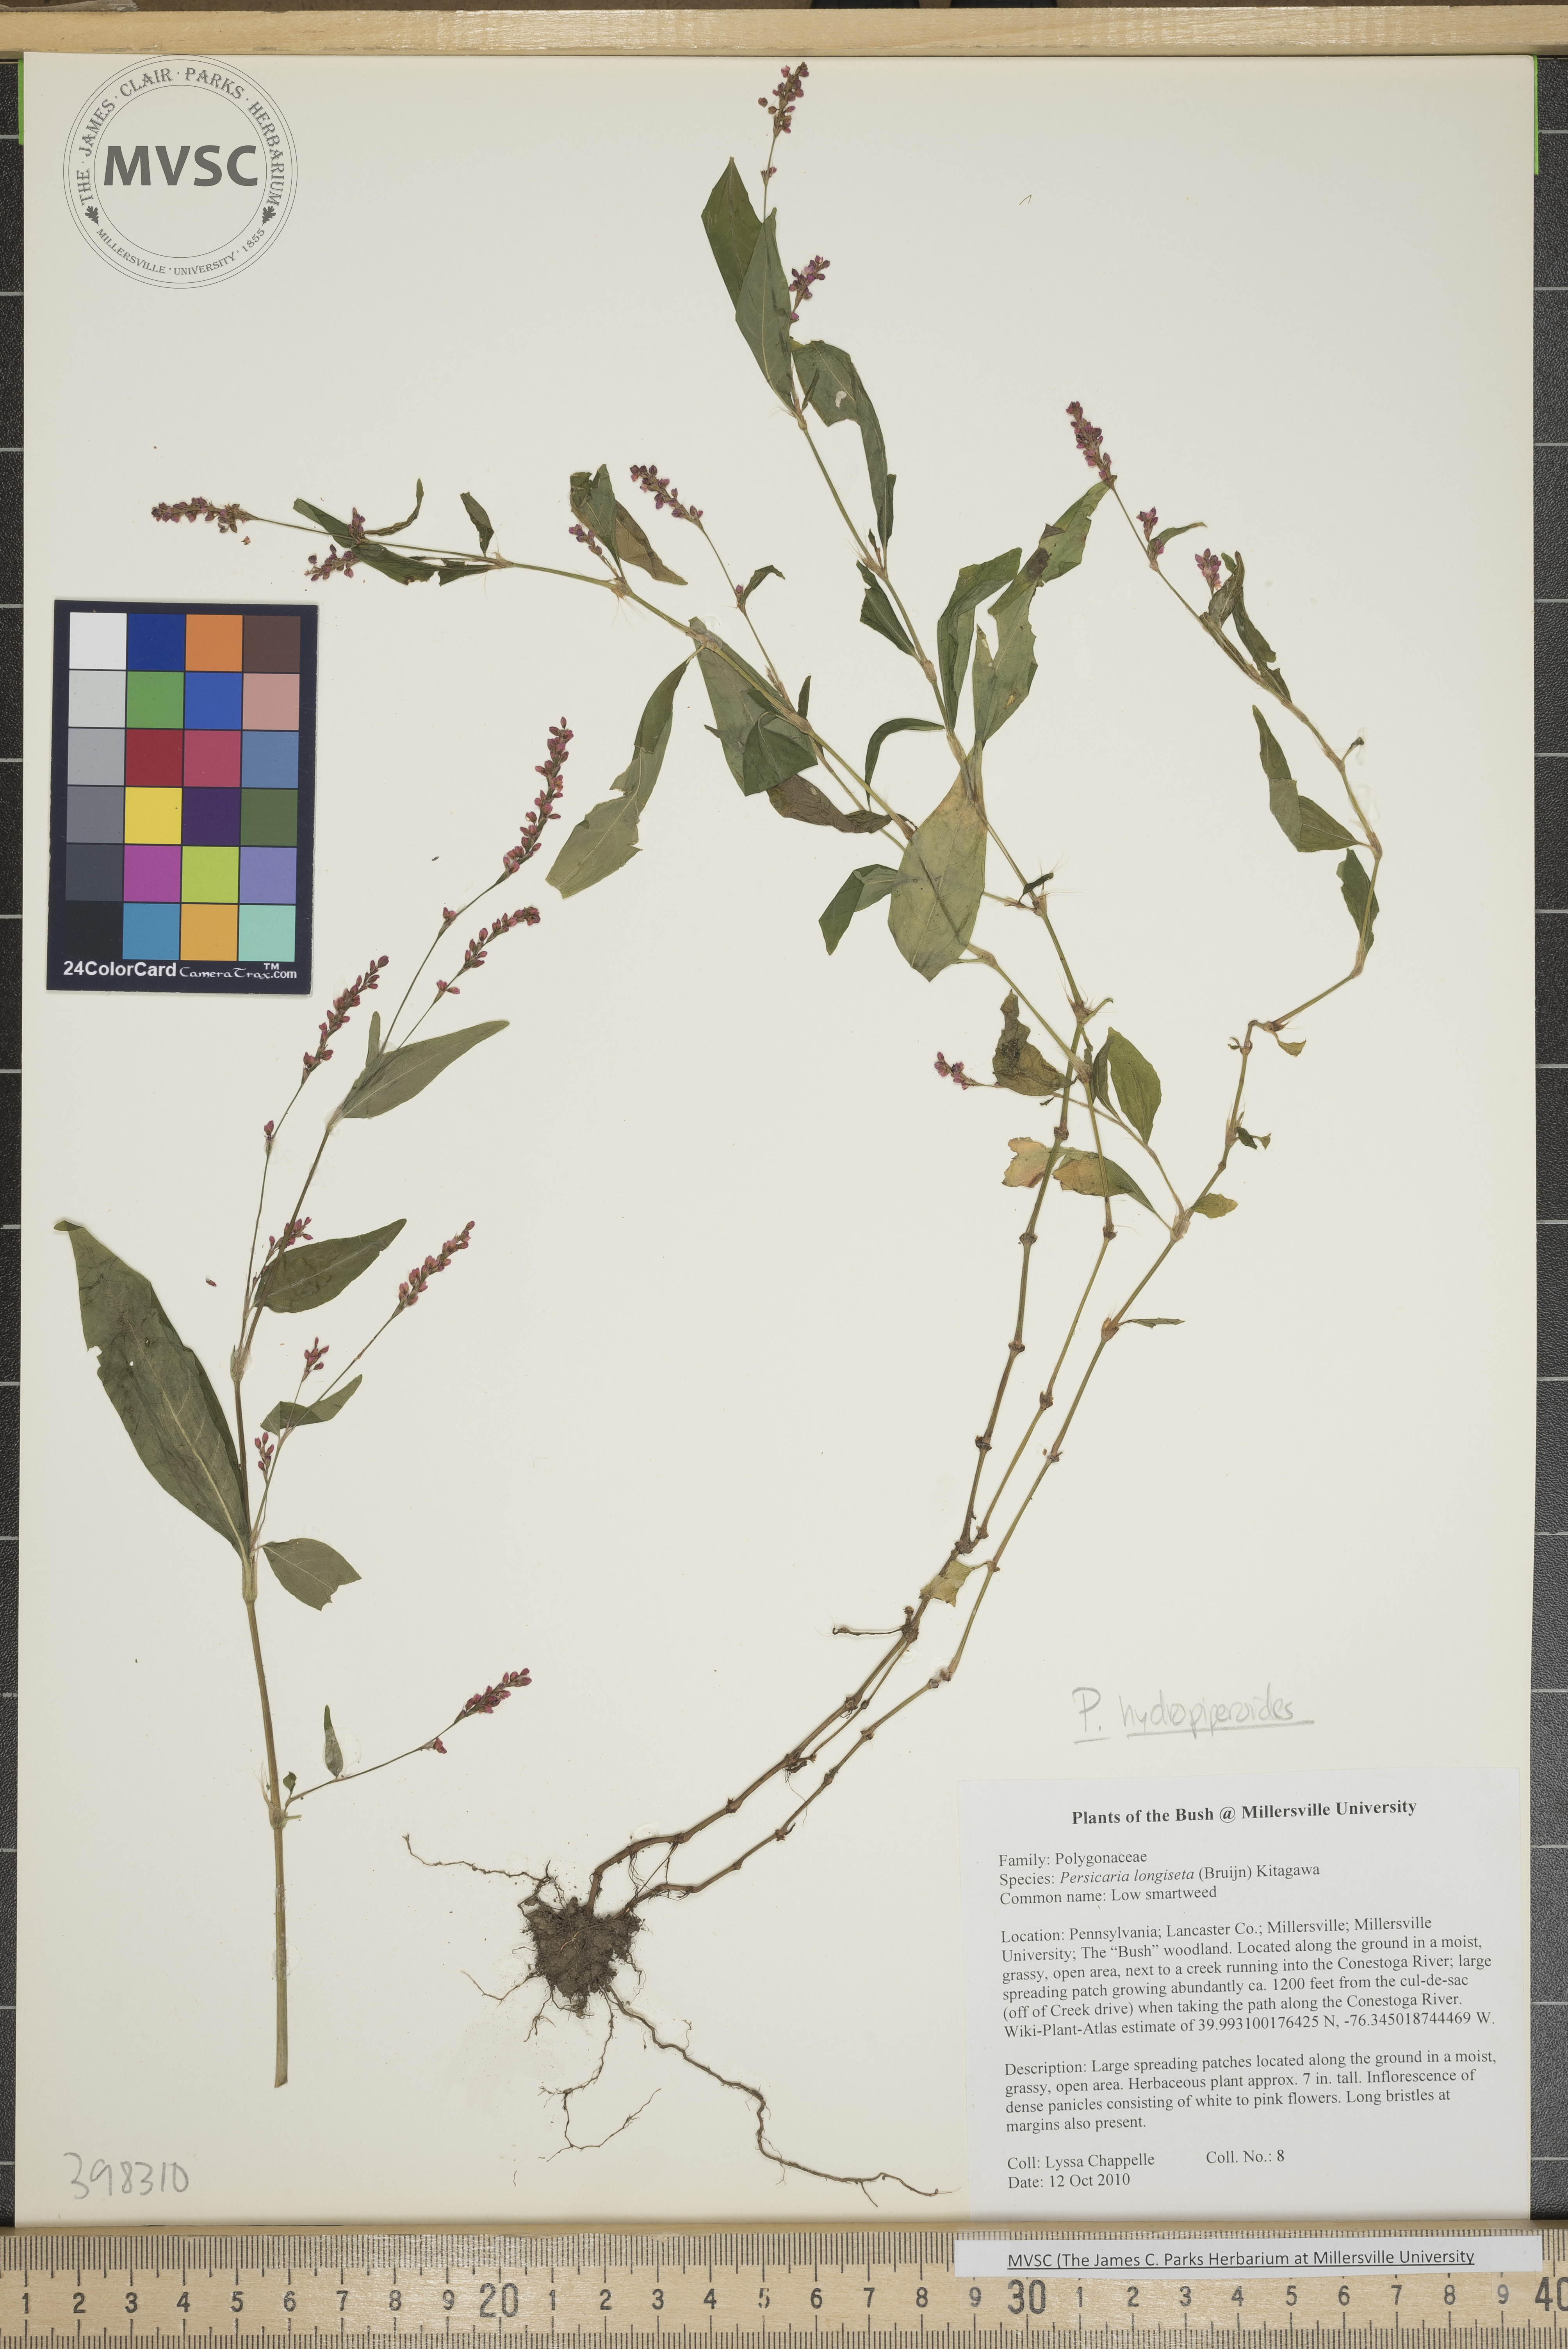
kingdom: Plantae
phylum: Tracheophyta
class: Magnoliopsida
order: Caryophyllales
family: Polygonaceae
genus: Persicaria
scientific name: Persicaria hydropiperoides
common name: Mild water-pepper
